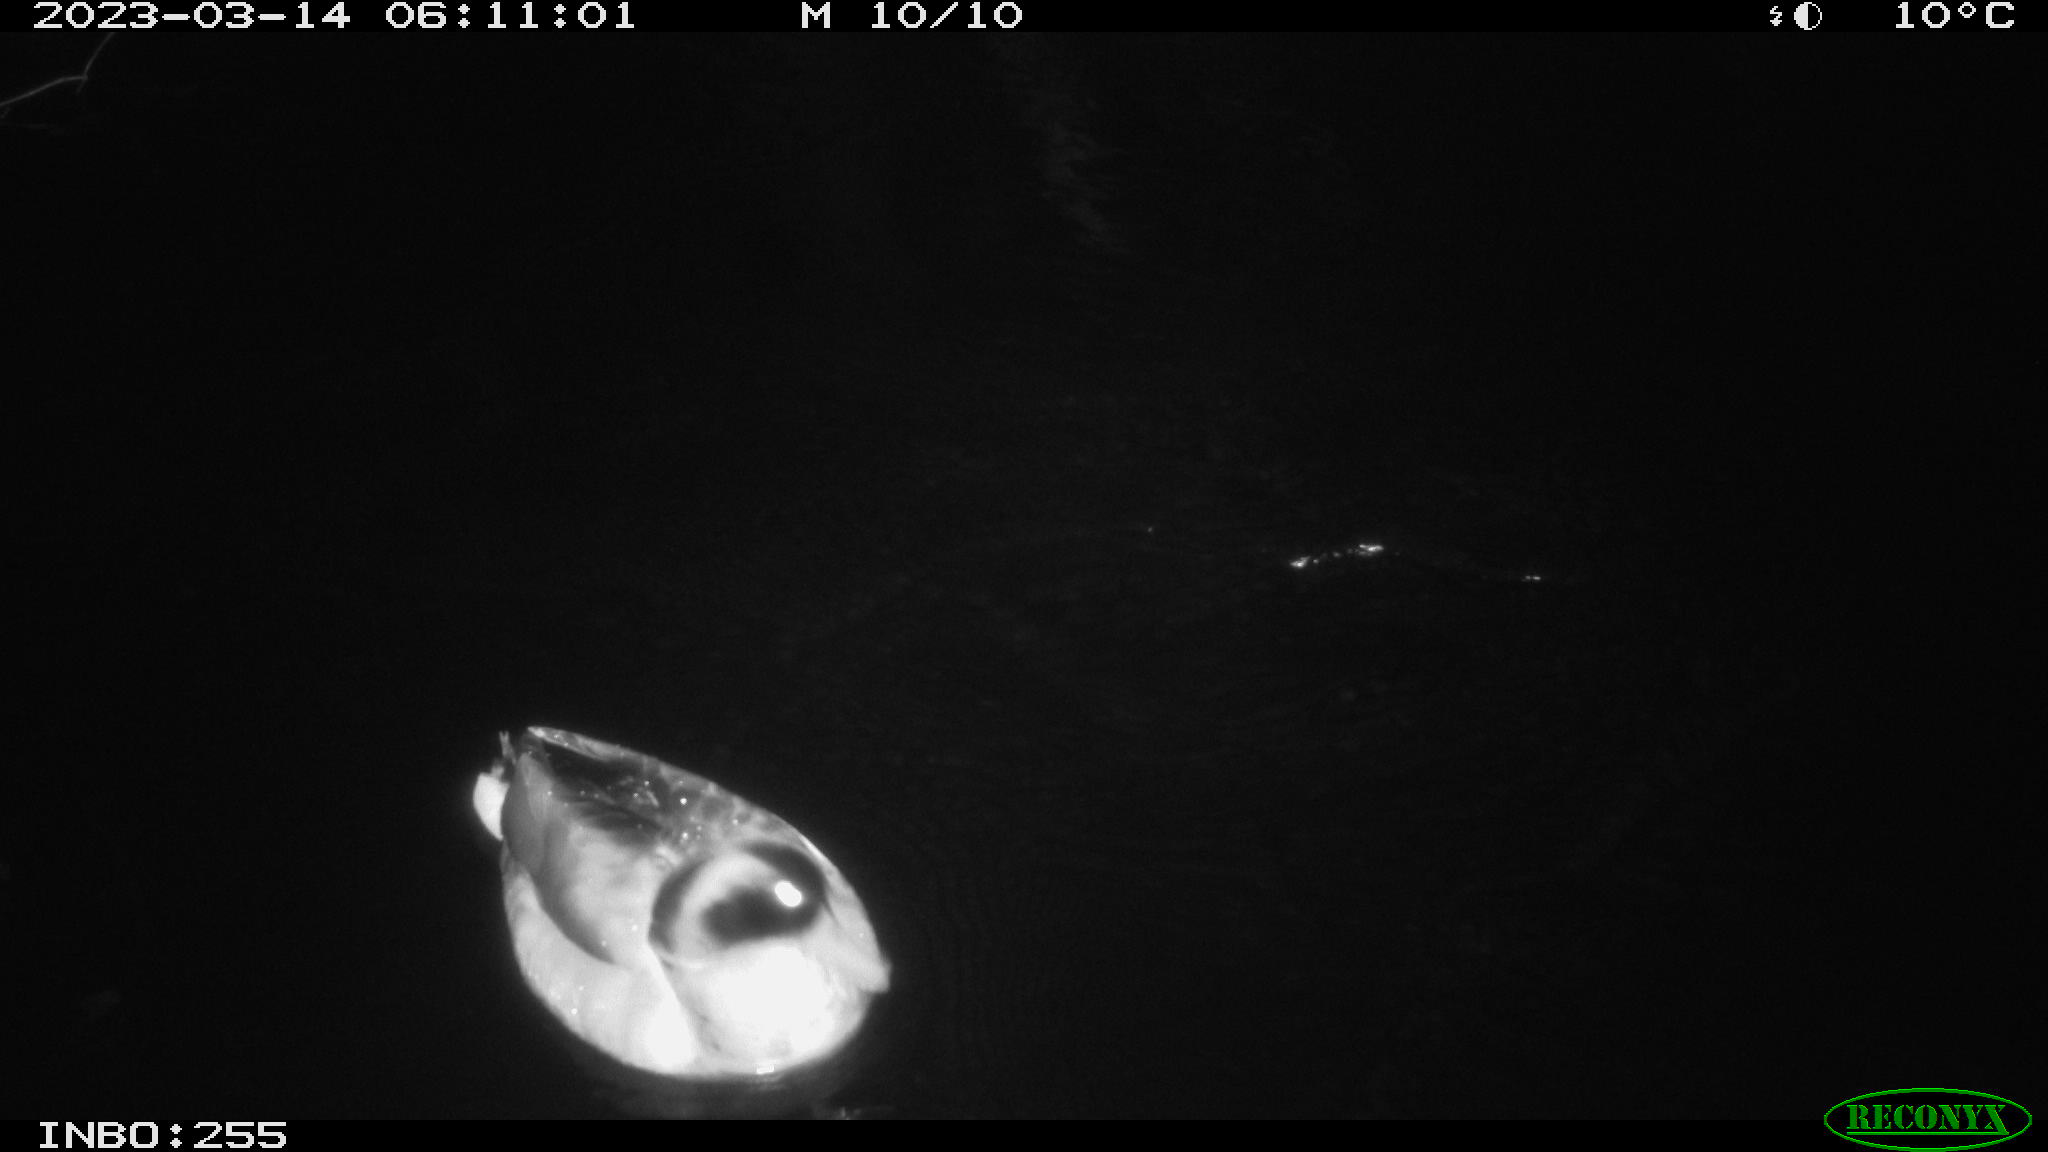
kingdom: Animalia
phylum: Chordata
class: Aves
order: Anseriformes
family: Anatidae
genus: Anas
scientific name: Anas
